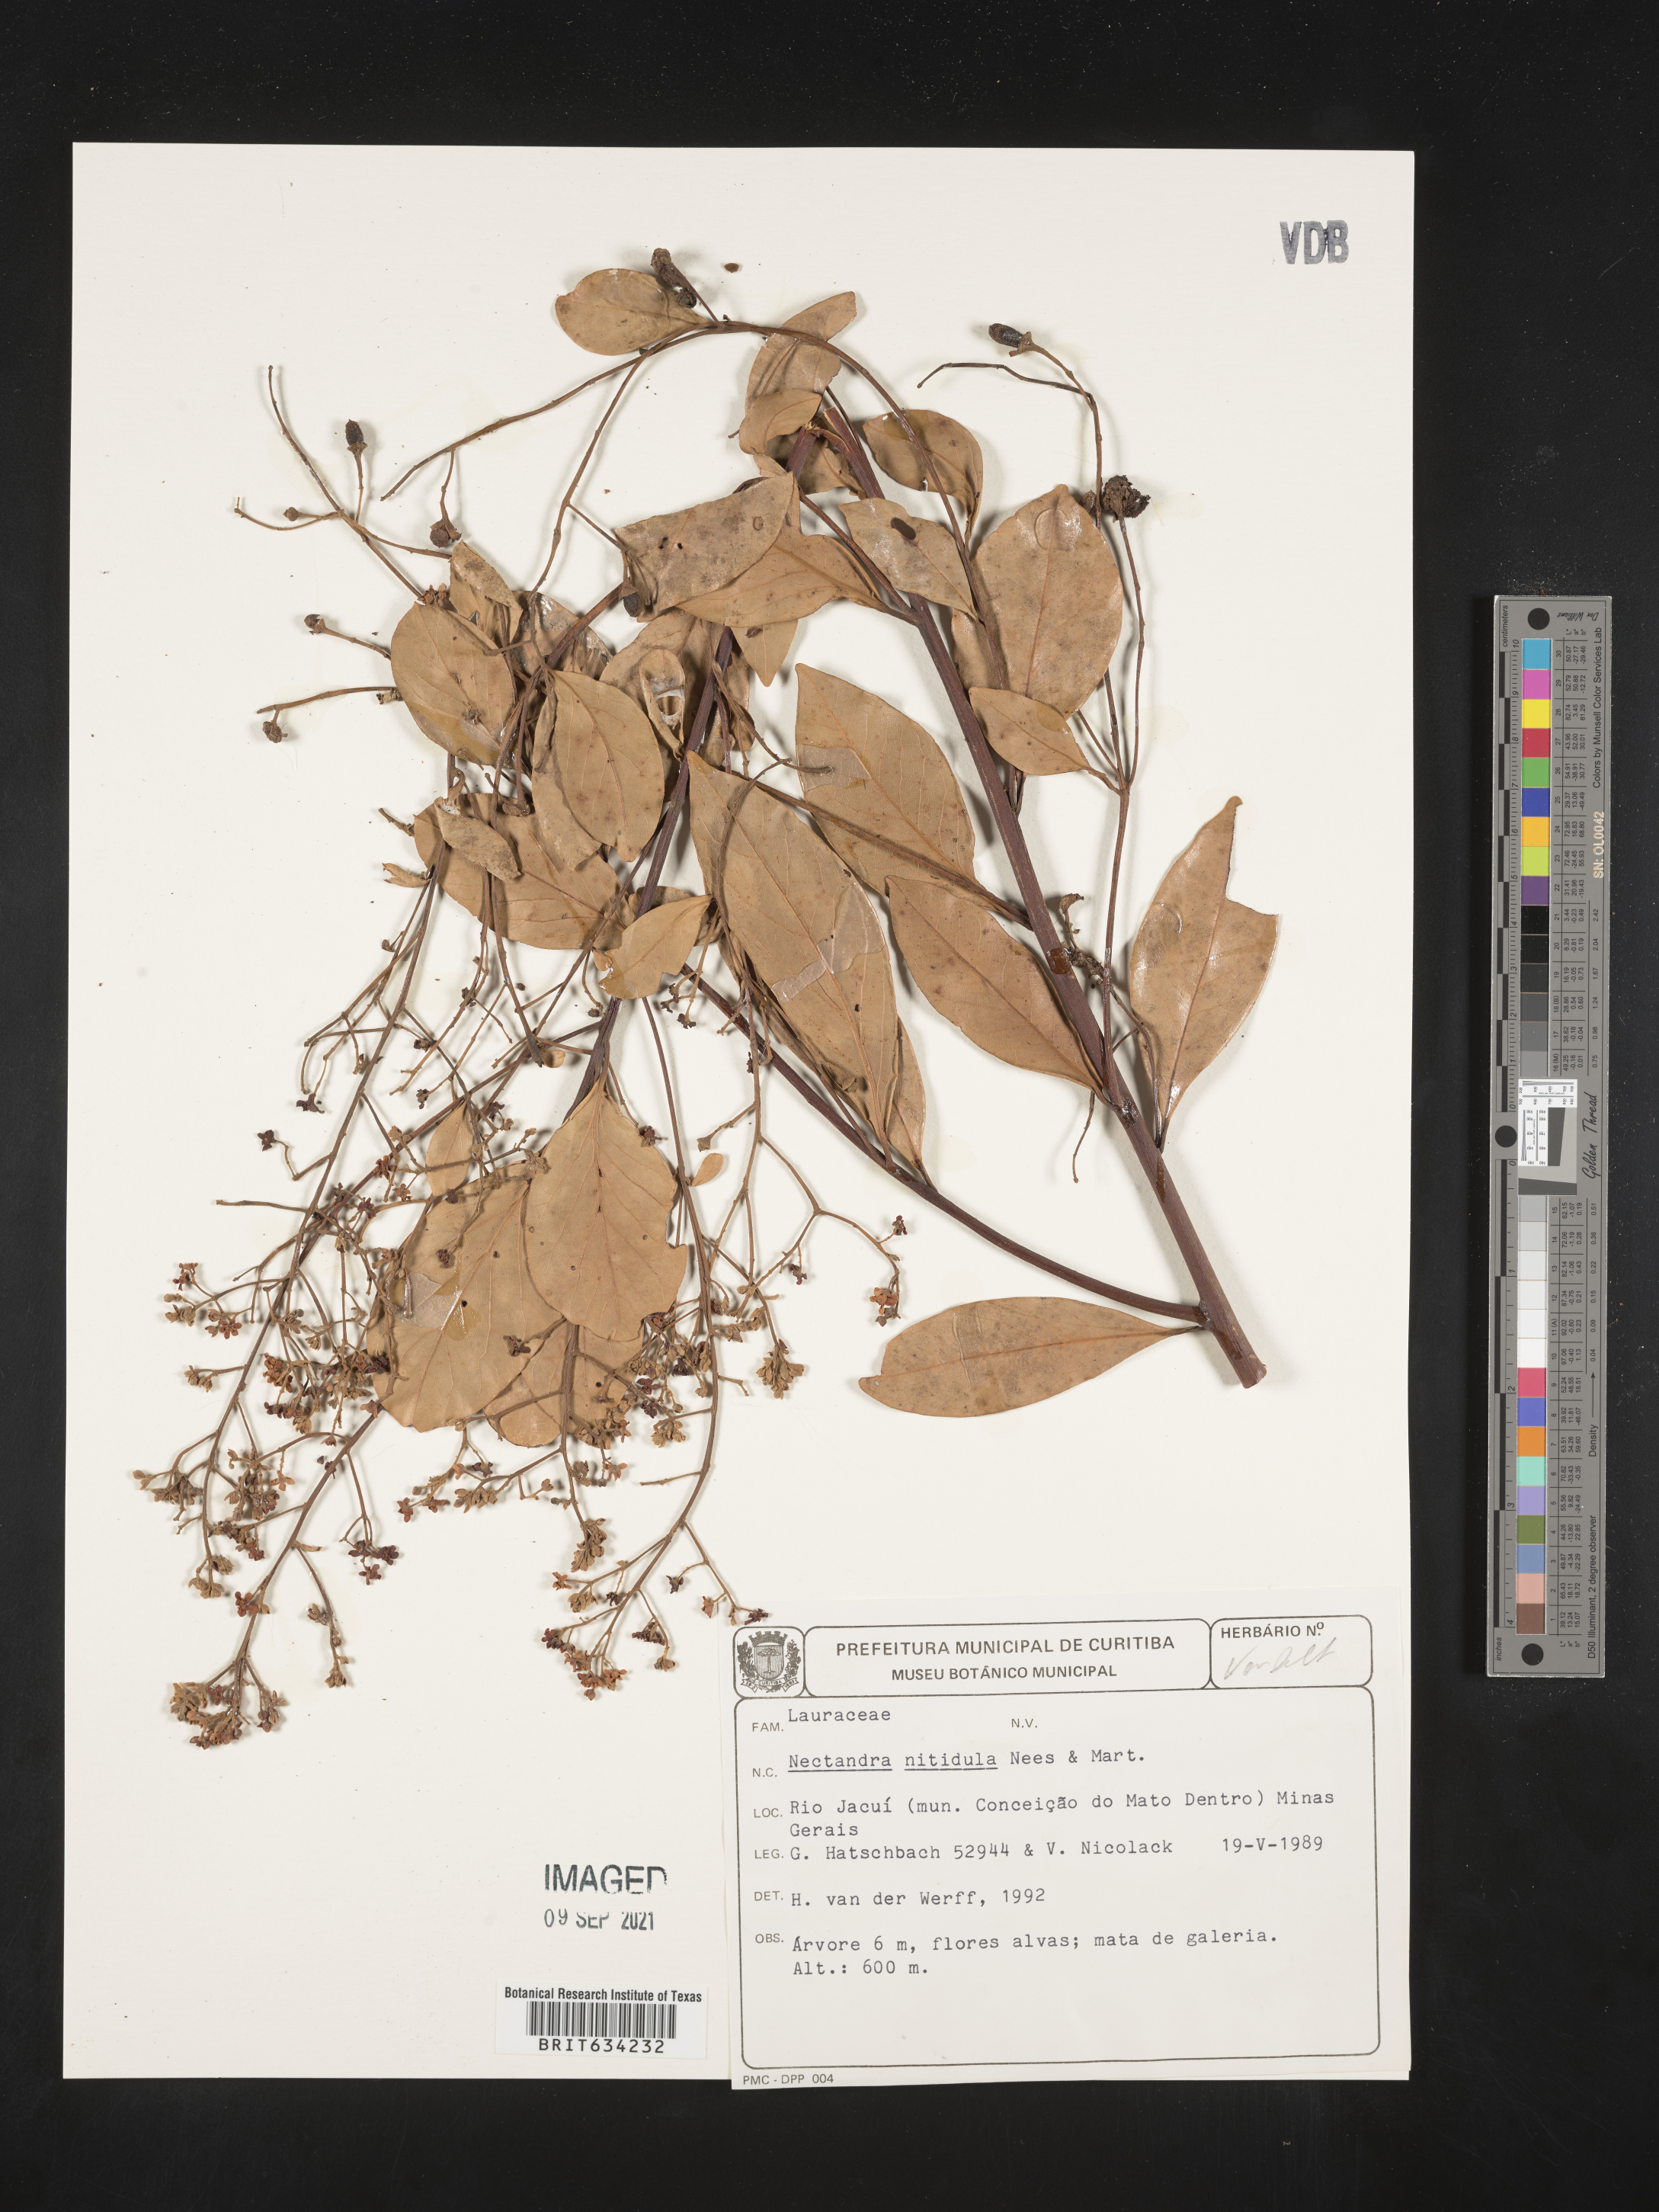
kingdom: Plantae
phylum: Tracheophyta
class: Magnoliopsida
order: Laurales
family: Lauraceae
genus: Nectandra
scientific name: Nectandra
